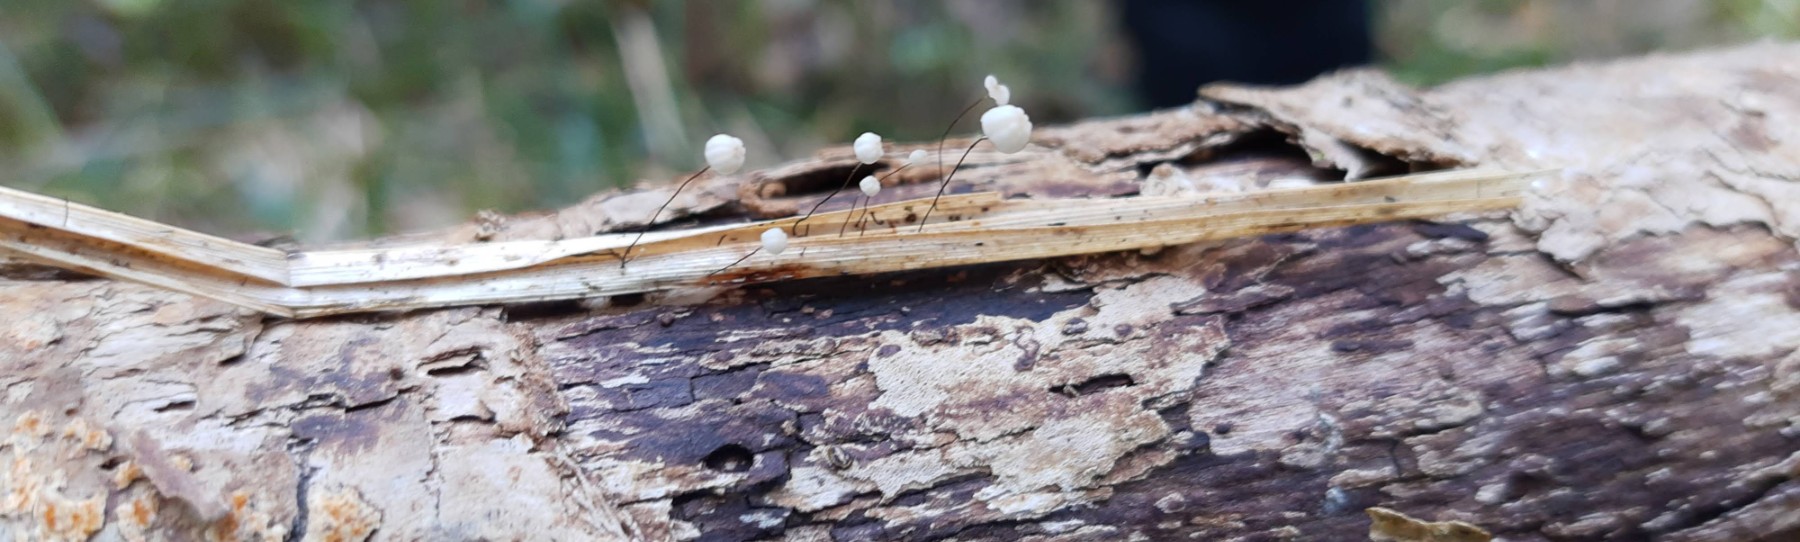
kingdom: Fungi
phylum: Basidiomycota
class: Agaricomycetes
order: Agaricales
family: Marasmiaceae
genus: Marasmius
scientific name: Marasmius limosus
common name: kær-bruskhat
